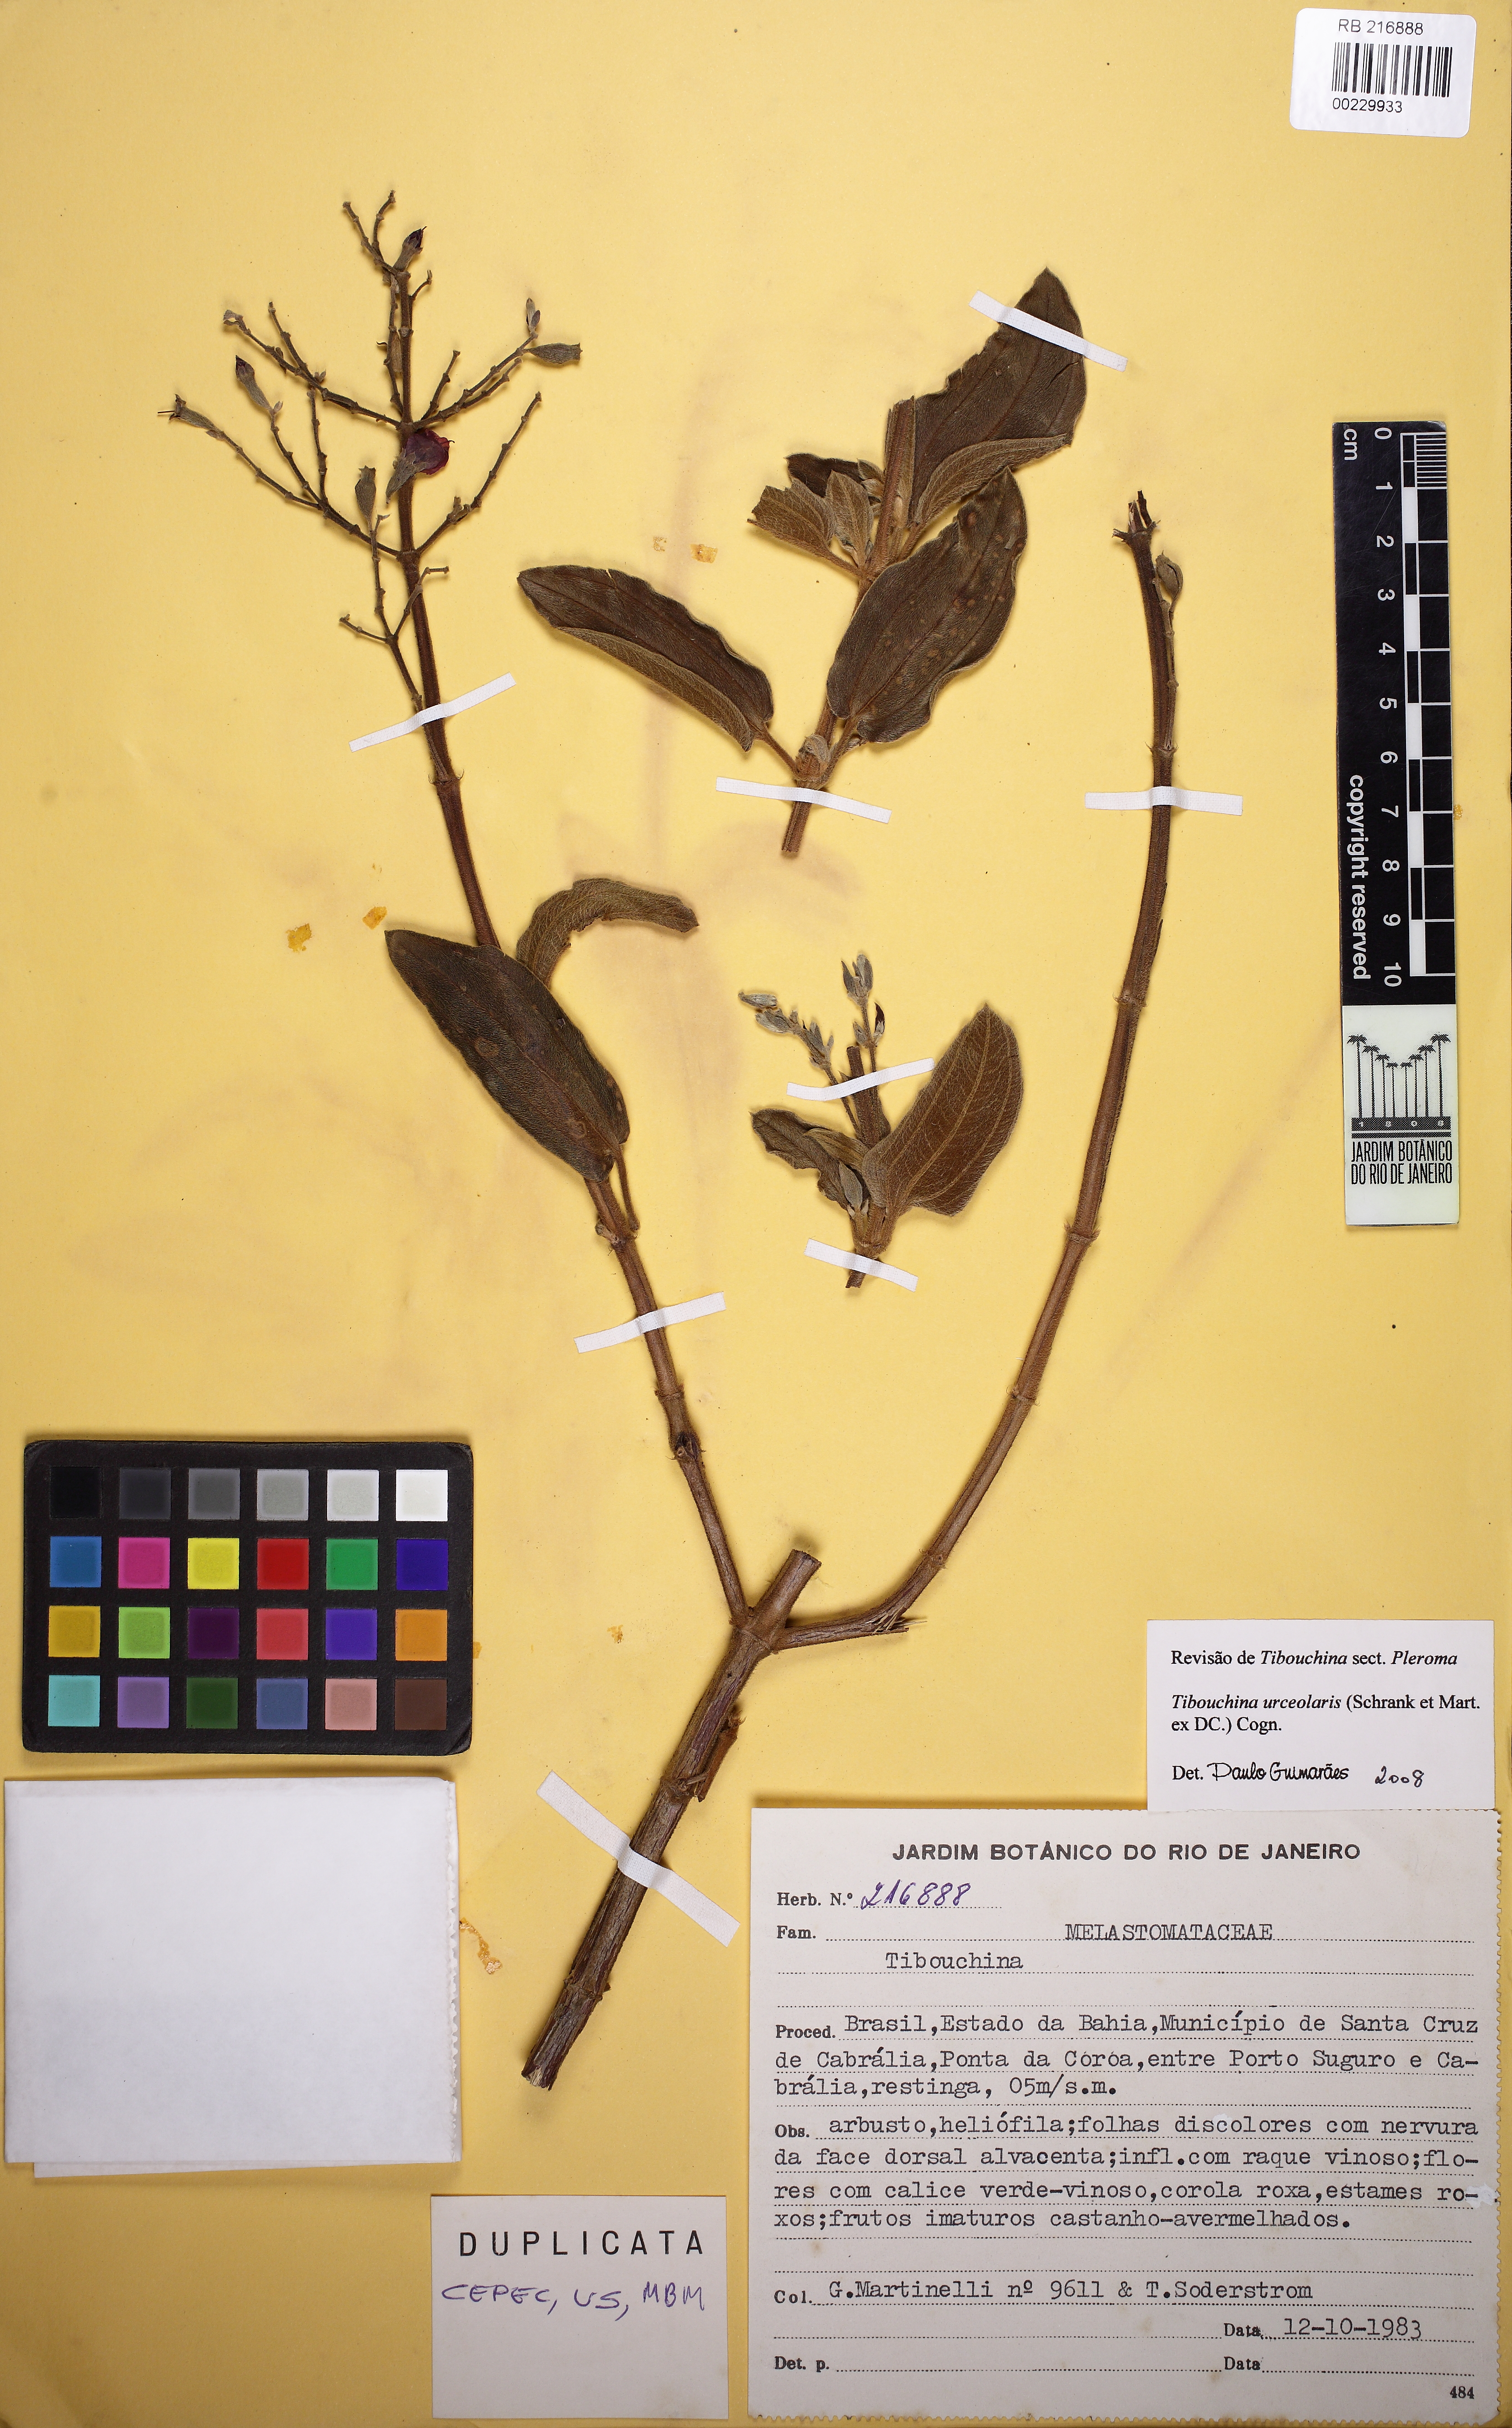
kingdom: Plantae
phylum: Tracheophyta
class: Magnoliopsida
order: Myrtales
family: Melastomataceae
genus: Pleroma
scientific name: Pleroma urceolare
